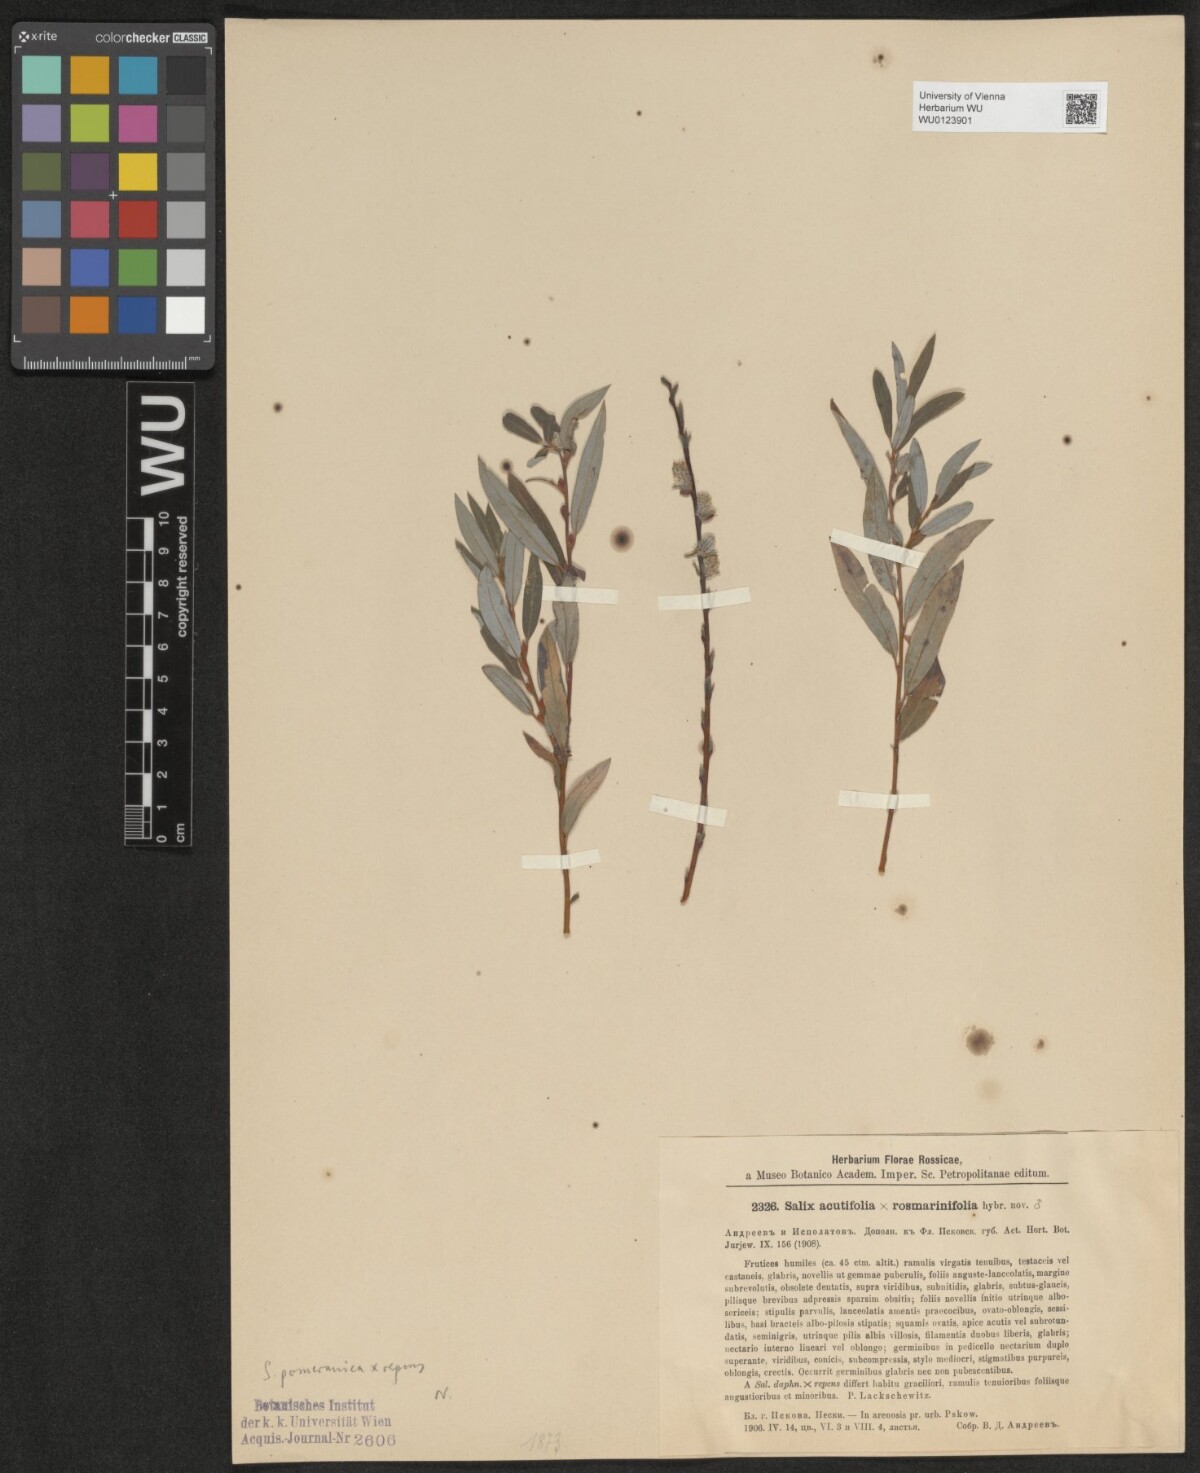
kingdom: Plantae
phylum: Tracheophyta
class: Magnoliopsida
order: Malpighiales
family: Salicaceae
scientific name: Salicaceae
